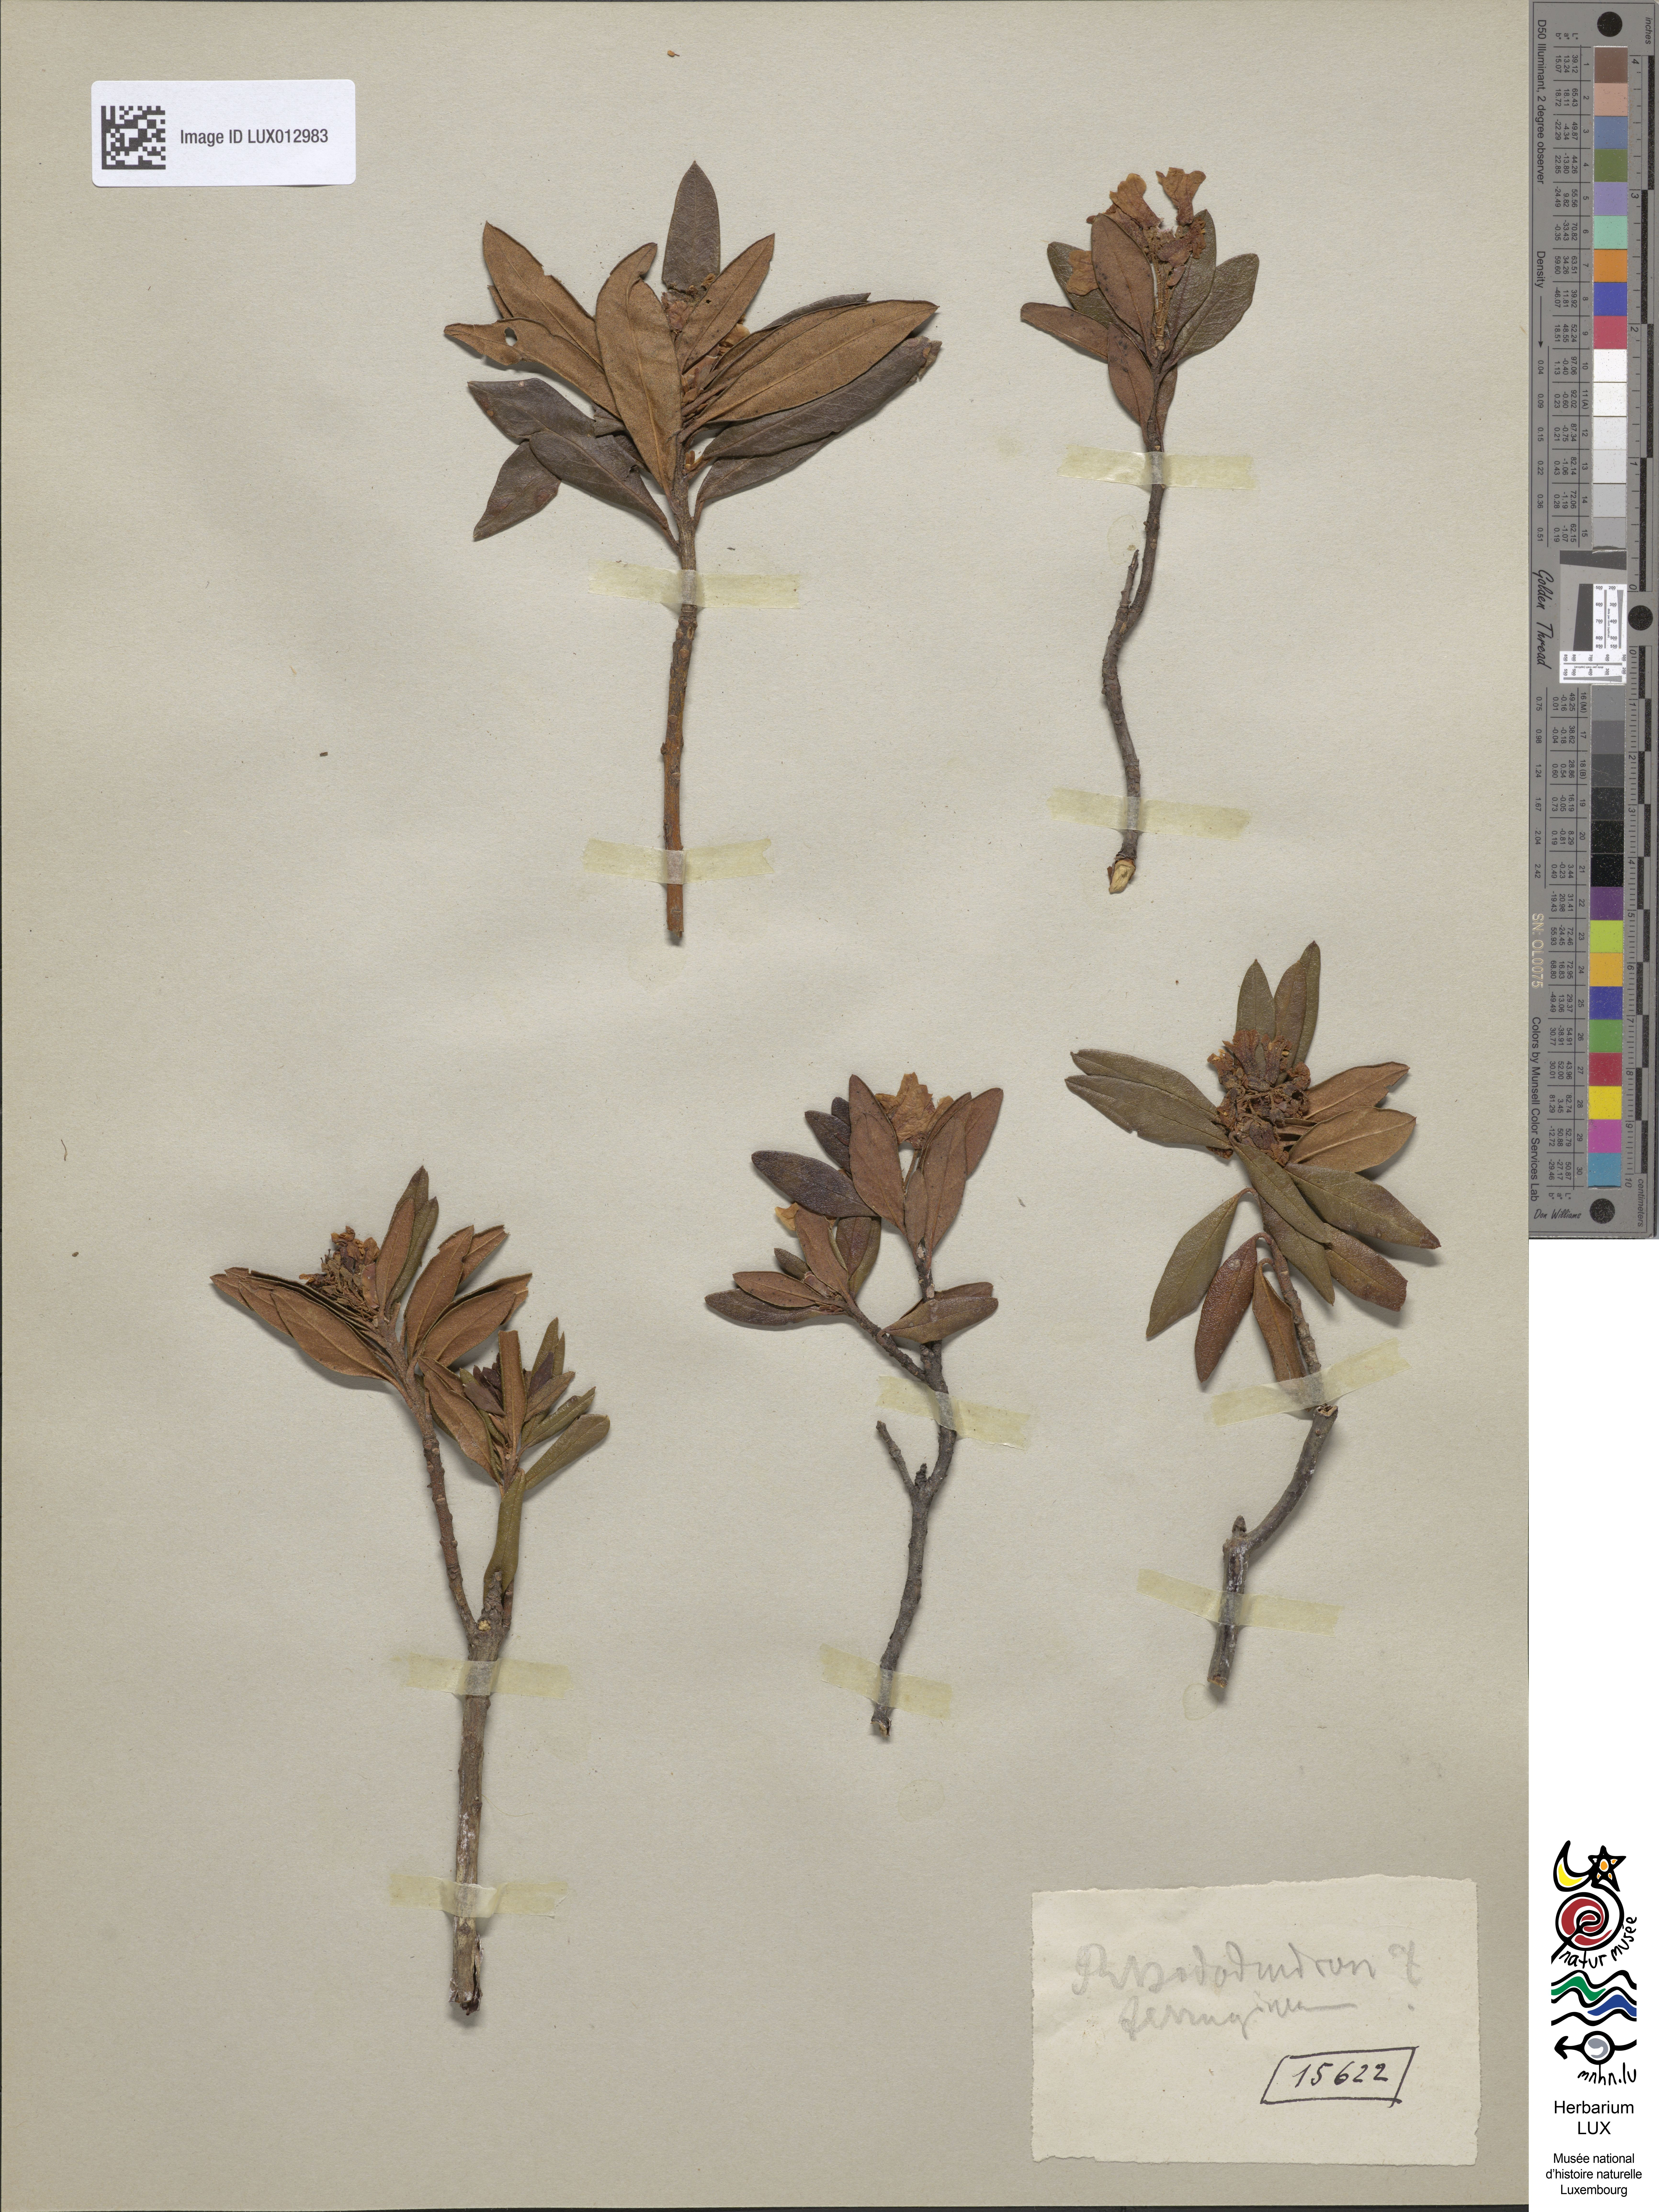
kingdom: Plantae
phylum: Tracheophyta
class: Magnoliopsida
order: Ericales
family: Ericaceae
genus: Rhododendron
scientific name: Rhododendron ferrugineum
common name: Alpenrose
